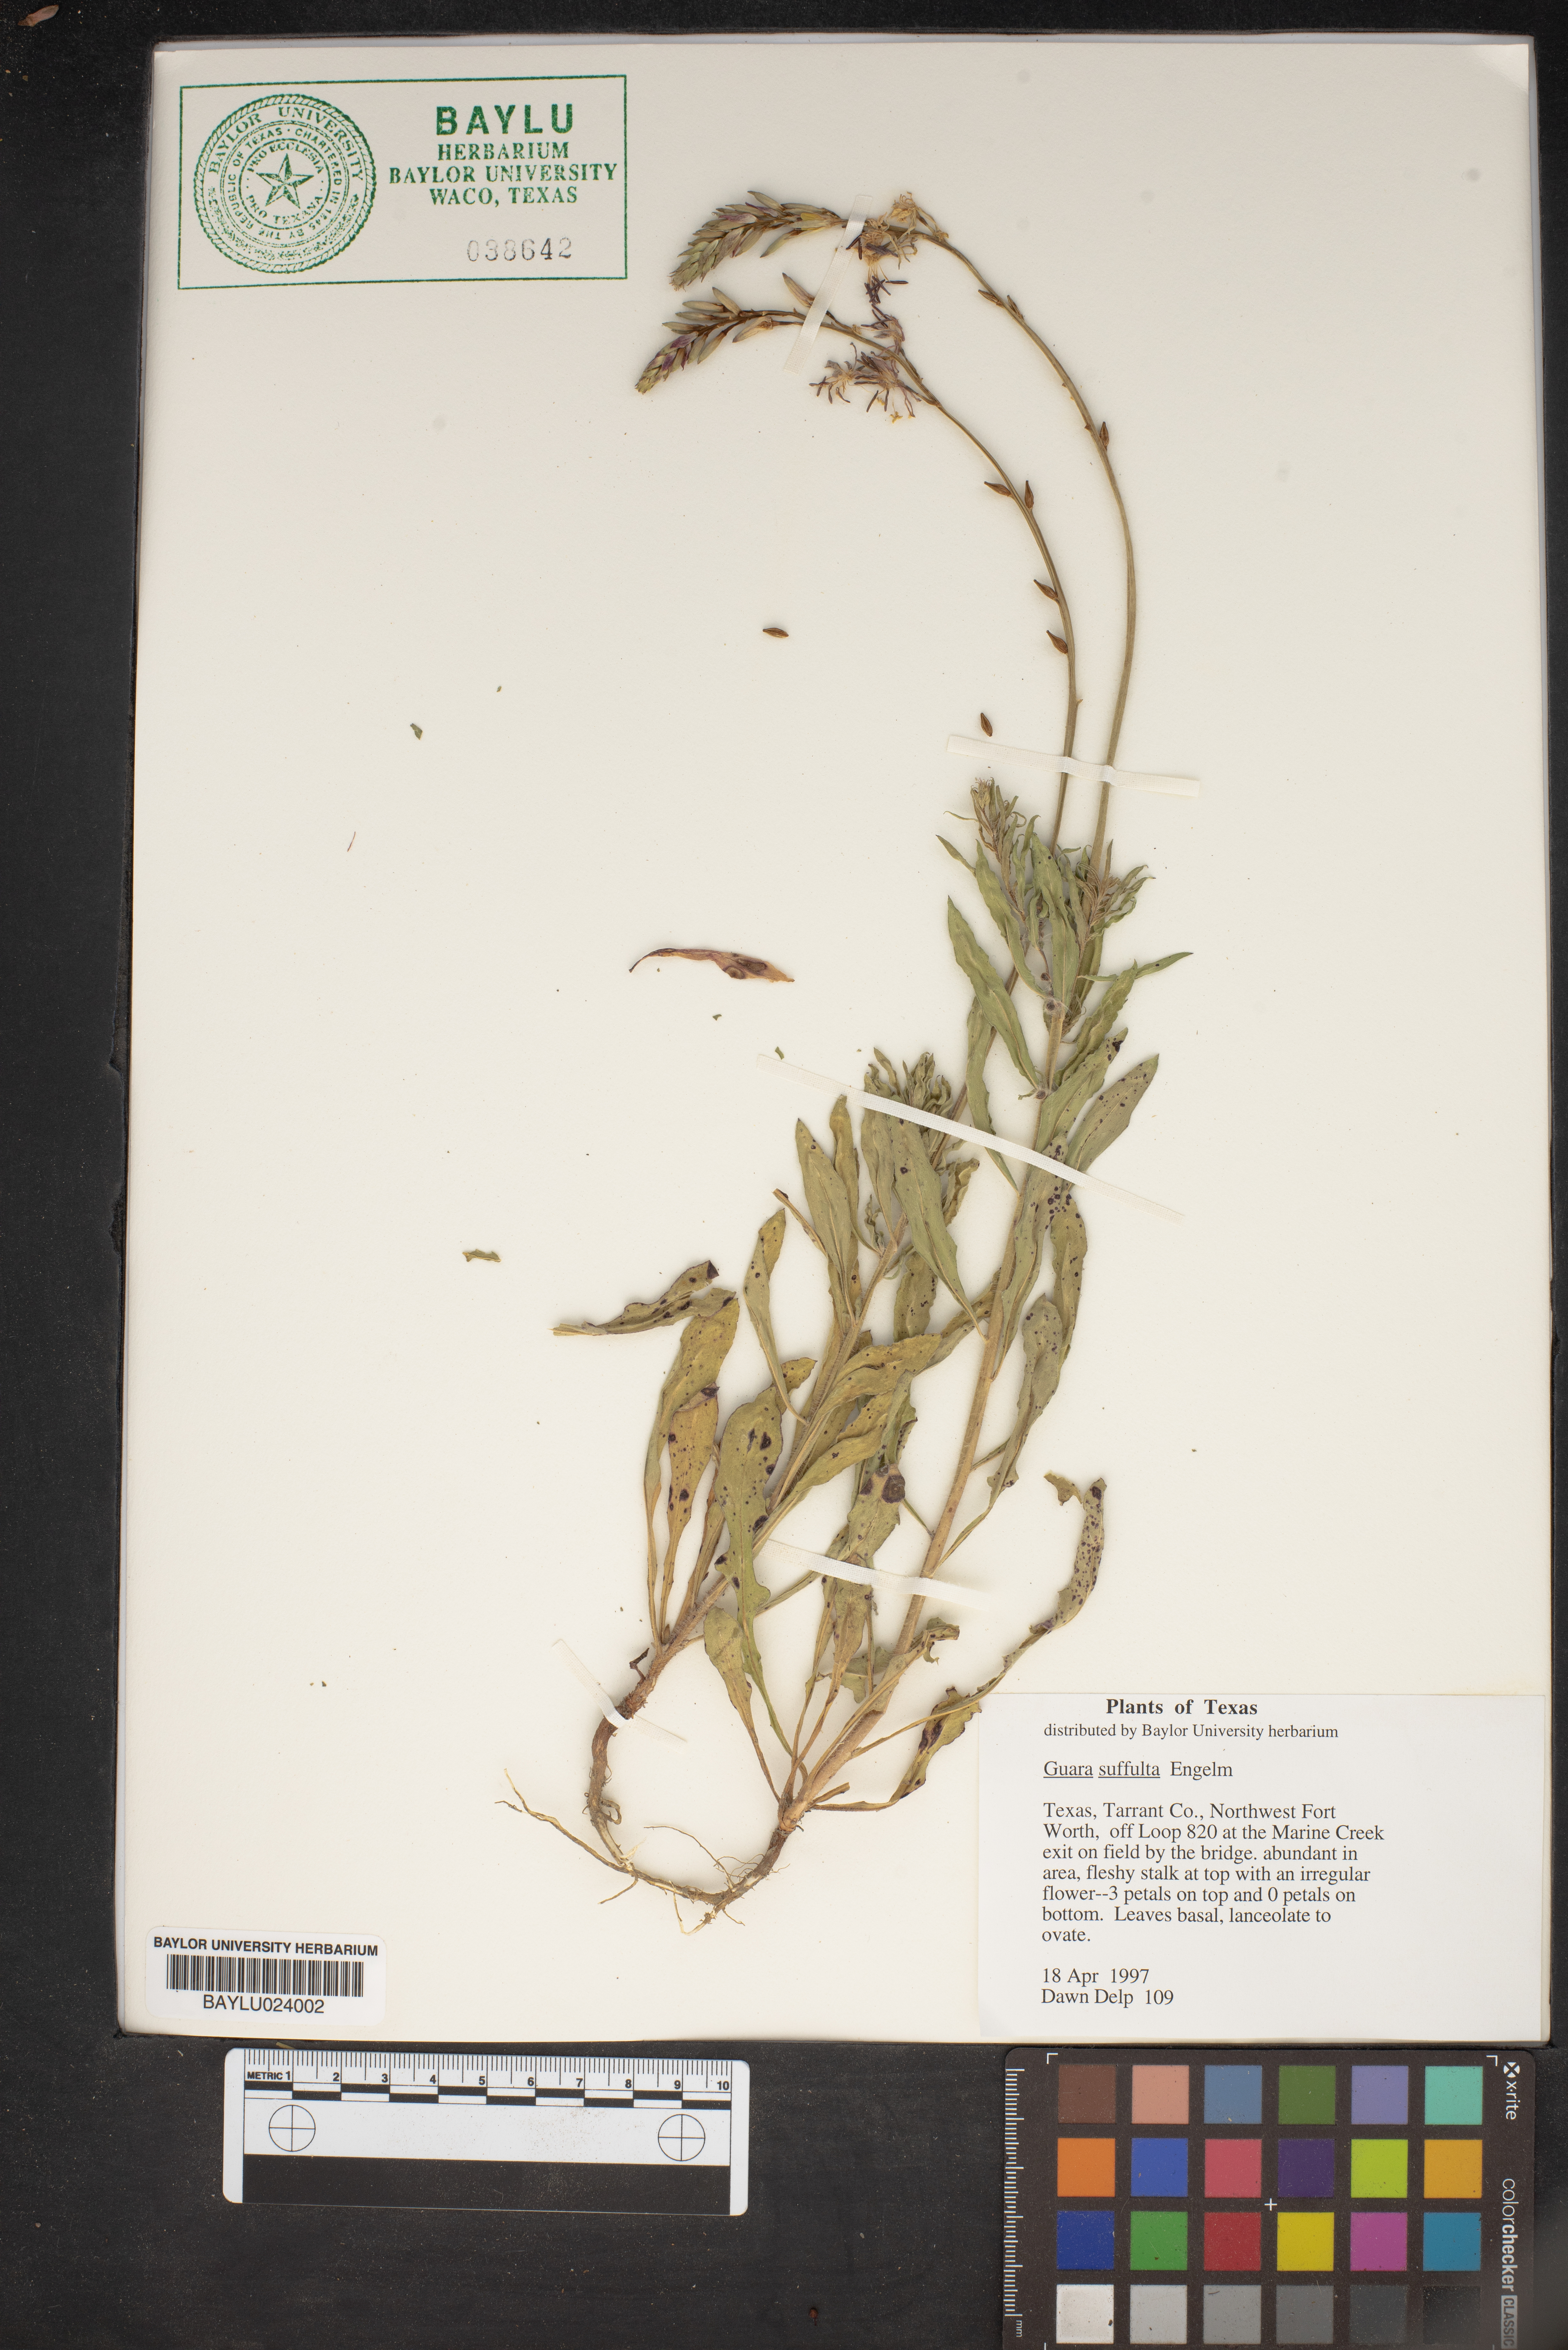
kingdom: Plantae
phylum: Tracheophyta
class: Magnoliopsida
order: Myrtales
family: Onagraceae
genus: Oenothera
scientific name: Oenothera Gaura suffulta
